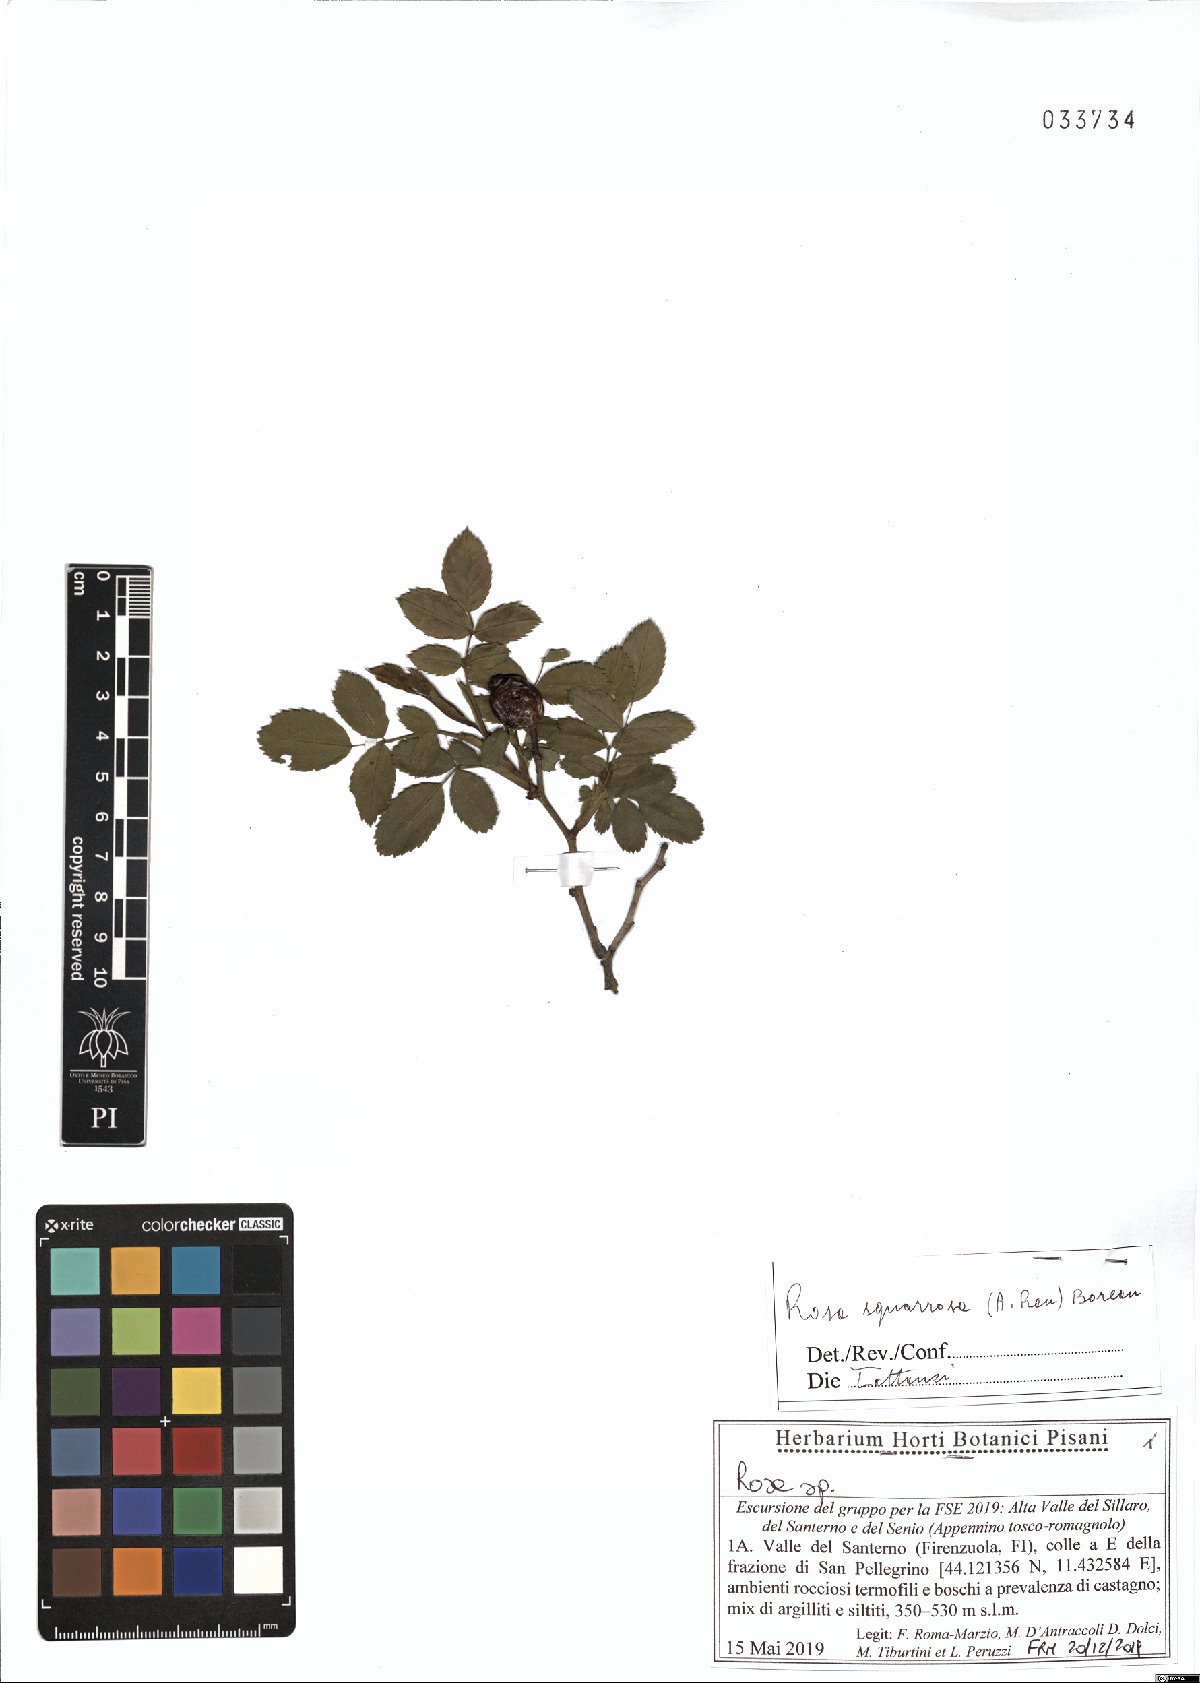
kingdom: Plantae
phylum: Tracheophyta
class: Magnoliopsida
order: Rosales
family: Rosaceae
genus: Rosa
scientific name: Rosa canina
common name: Dog rose
